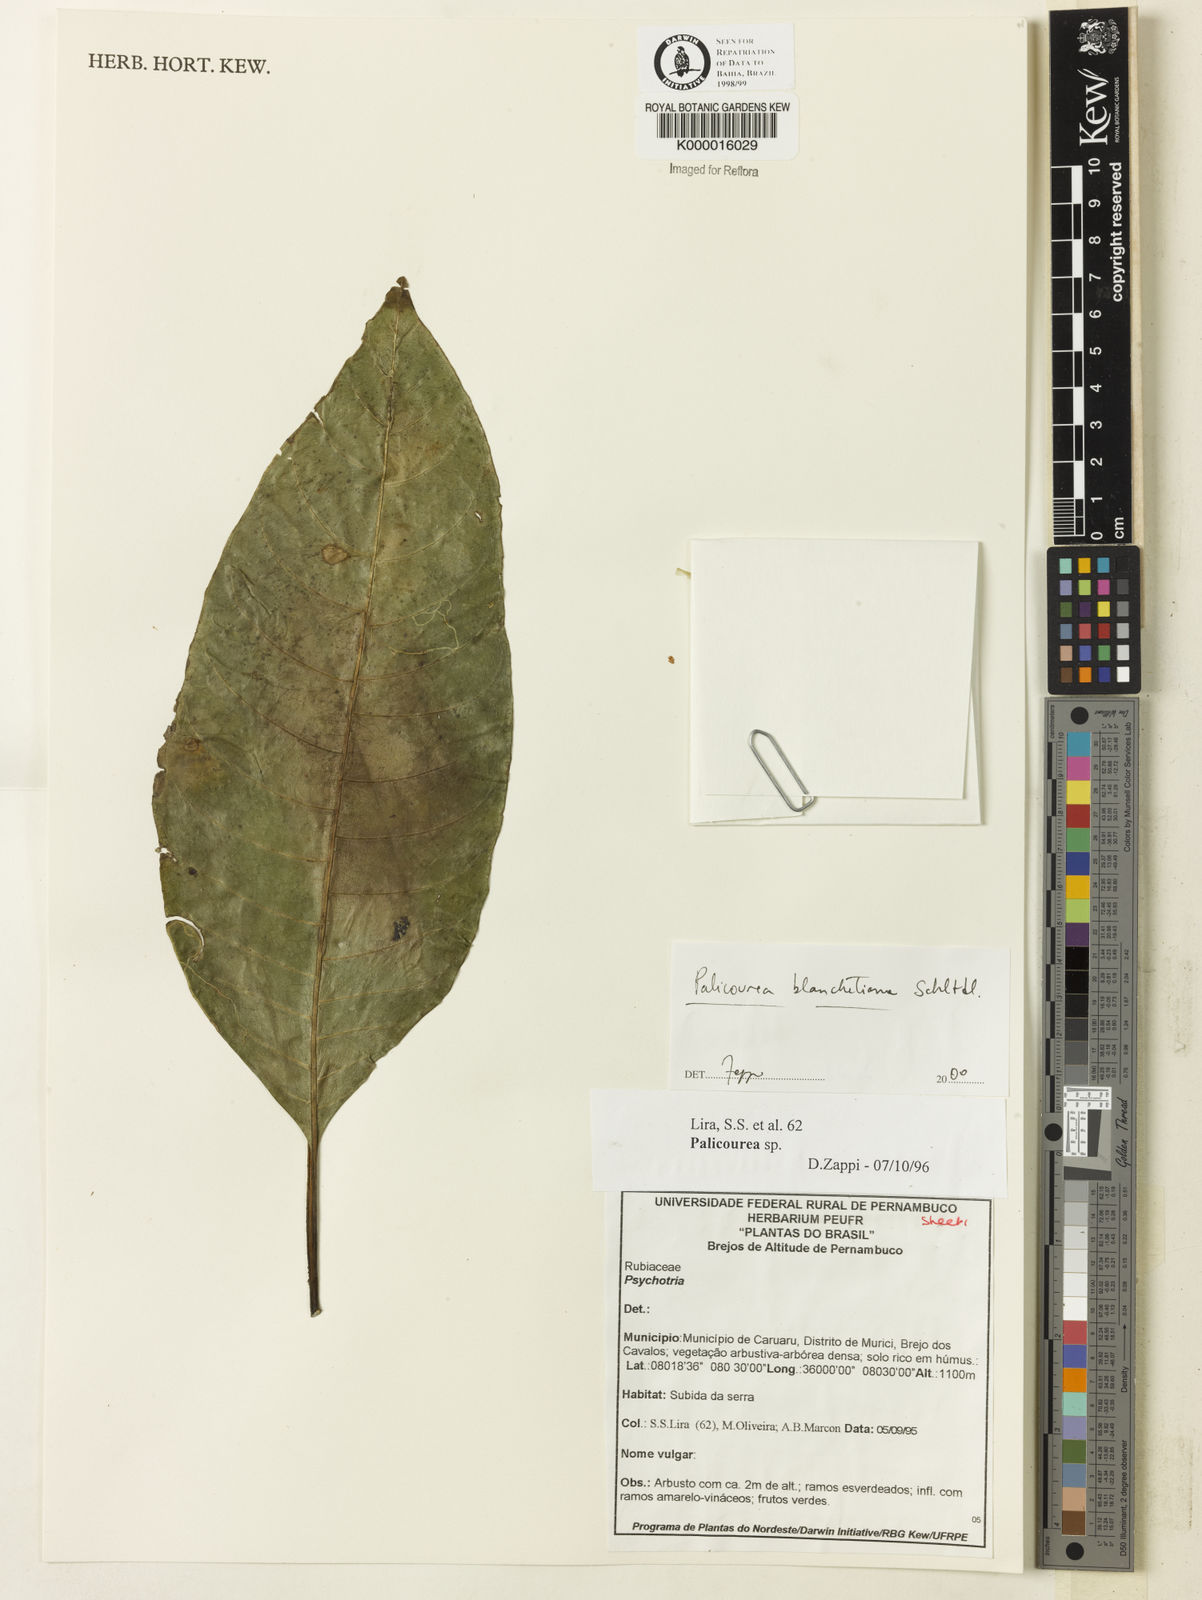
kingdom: Plantae
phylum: Tracheophyta
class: Magnoliopsida
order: Gentianales
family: Rubiaceae
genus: Palicourea
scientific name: Palicourea blanchetiana
